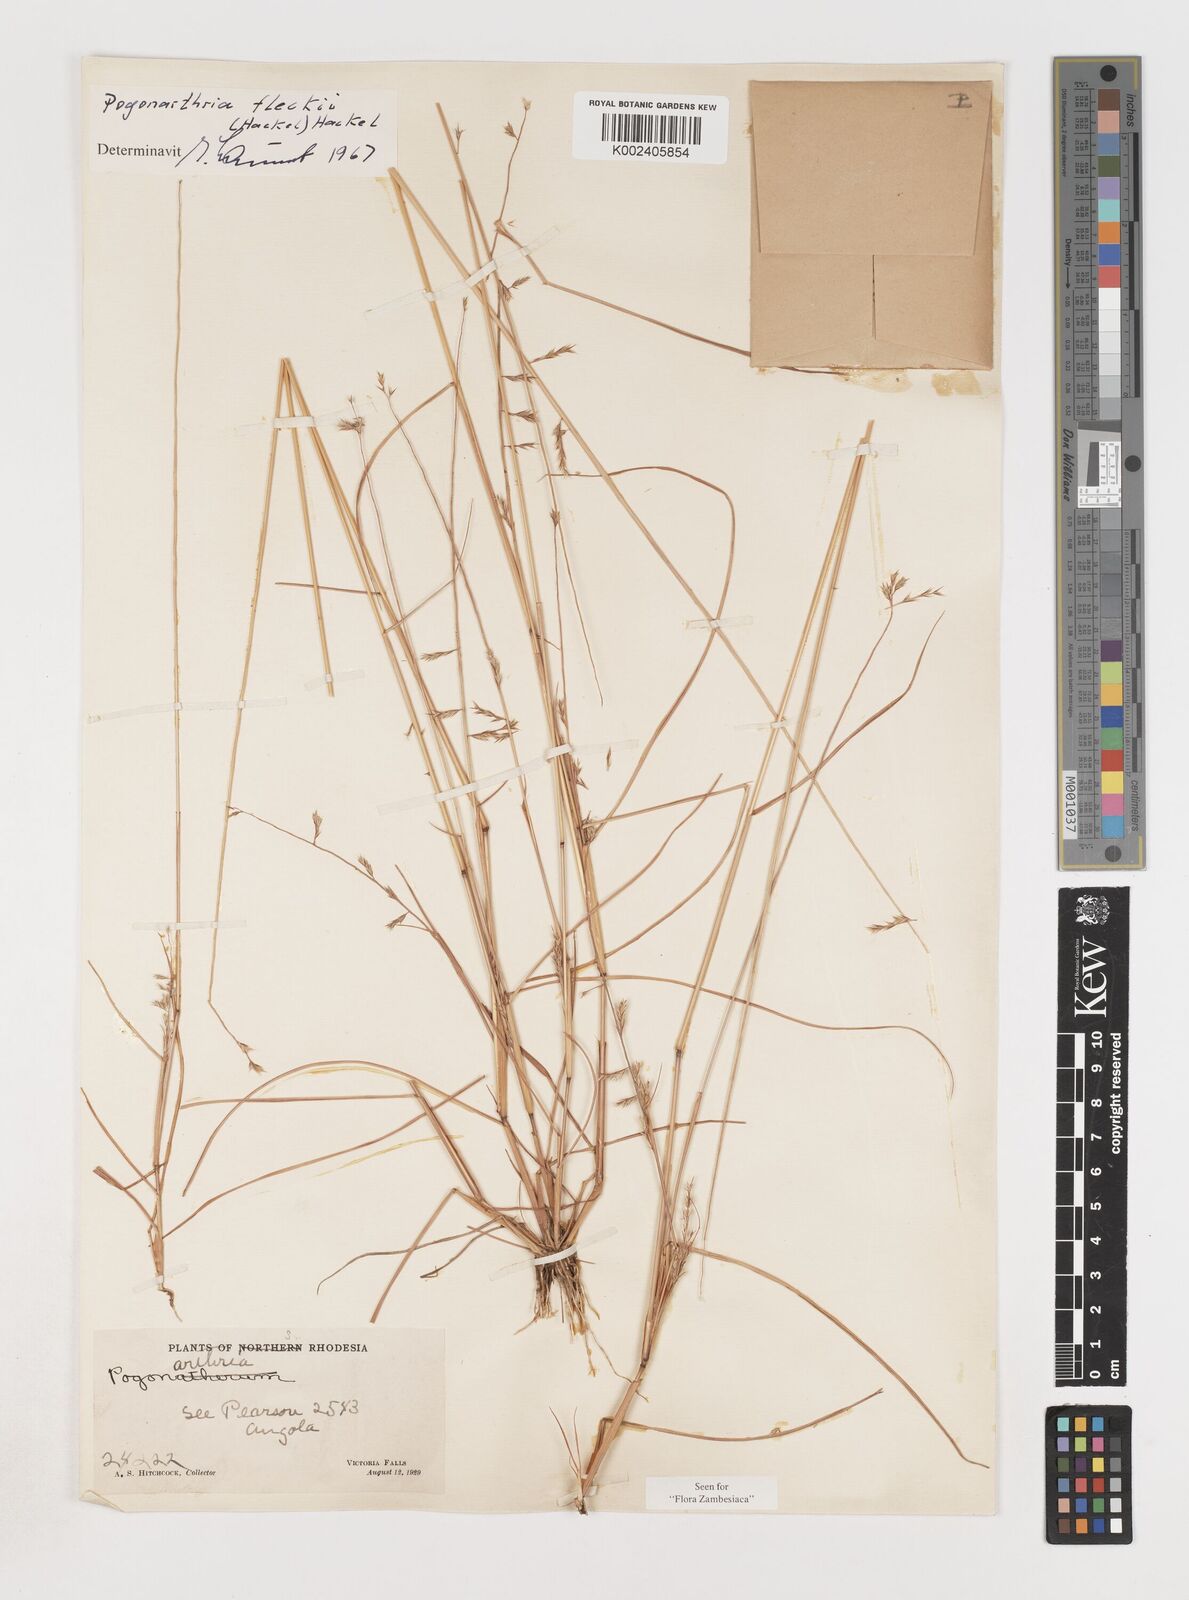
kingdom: Plantae
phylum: Tracheophyta
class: Liliopsida
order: Poales
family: Poaceae
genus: Pogonarthria
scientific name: Pogonarthria fleckii
